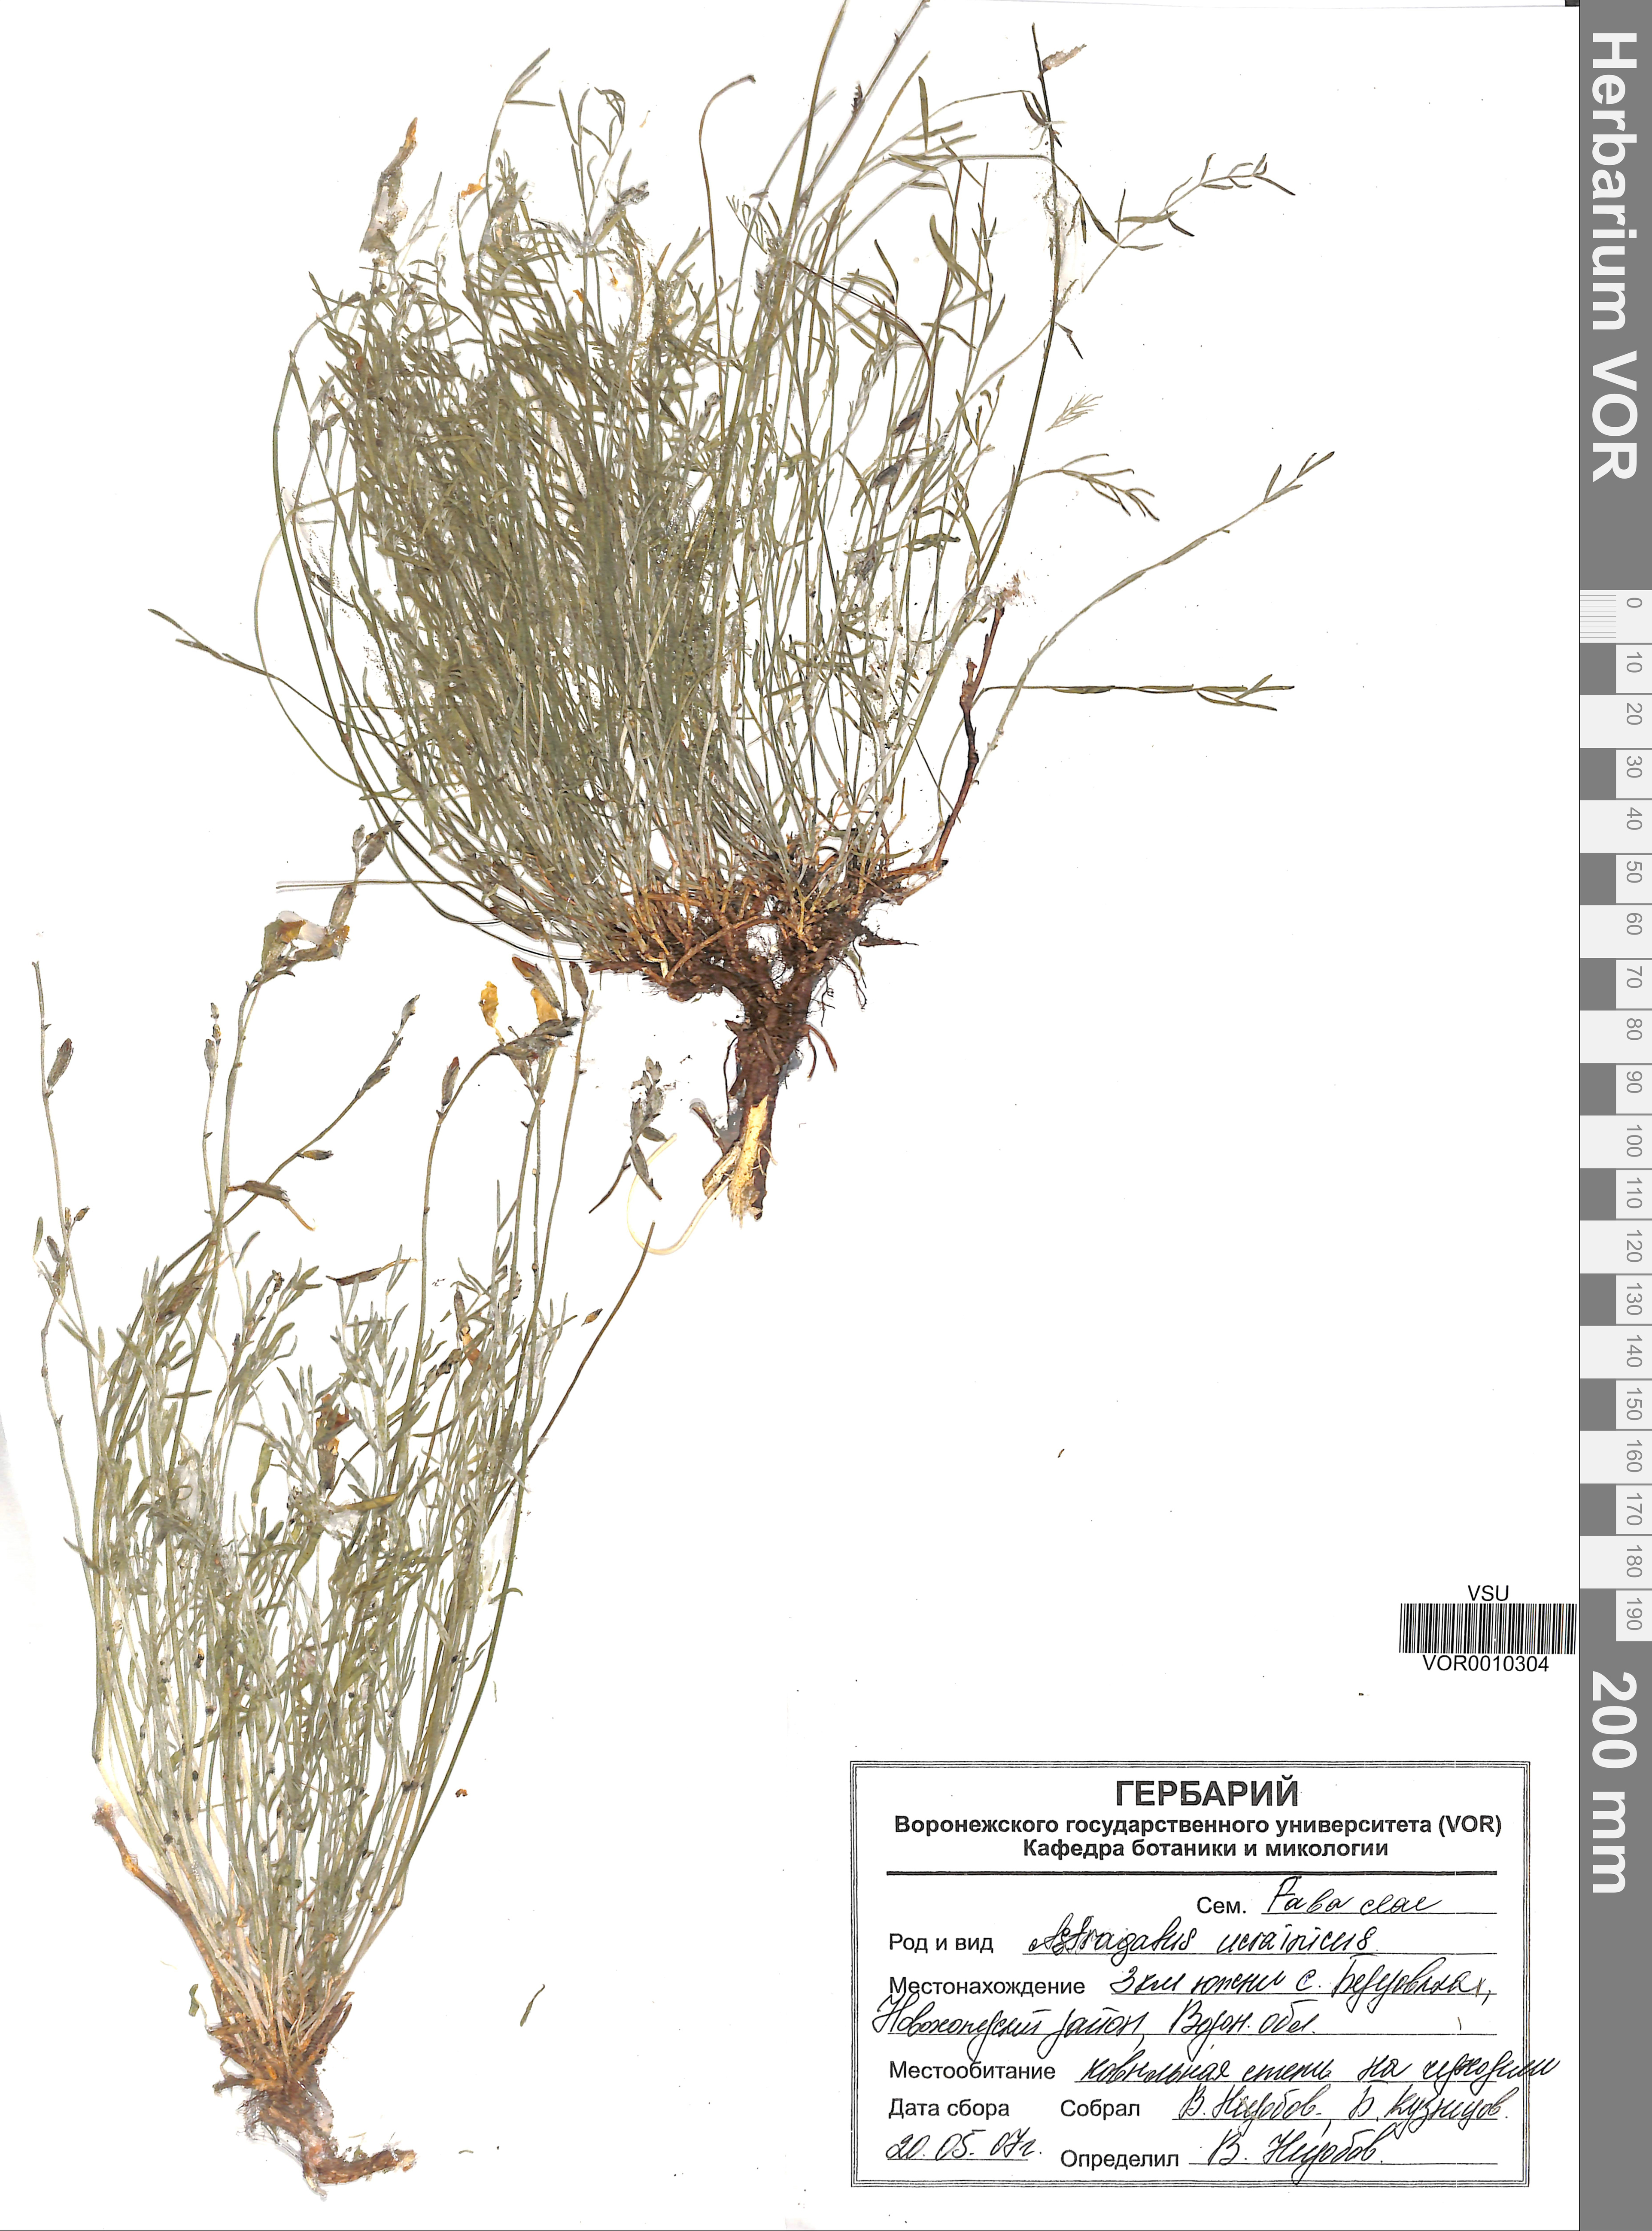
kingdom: Plantae
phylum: Tracheophyta
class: Magnoliopsida
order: Fabales
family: Fabaceae
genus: Astragalus
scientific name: Astragalus ucrainicus
